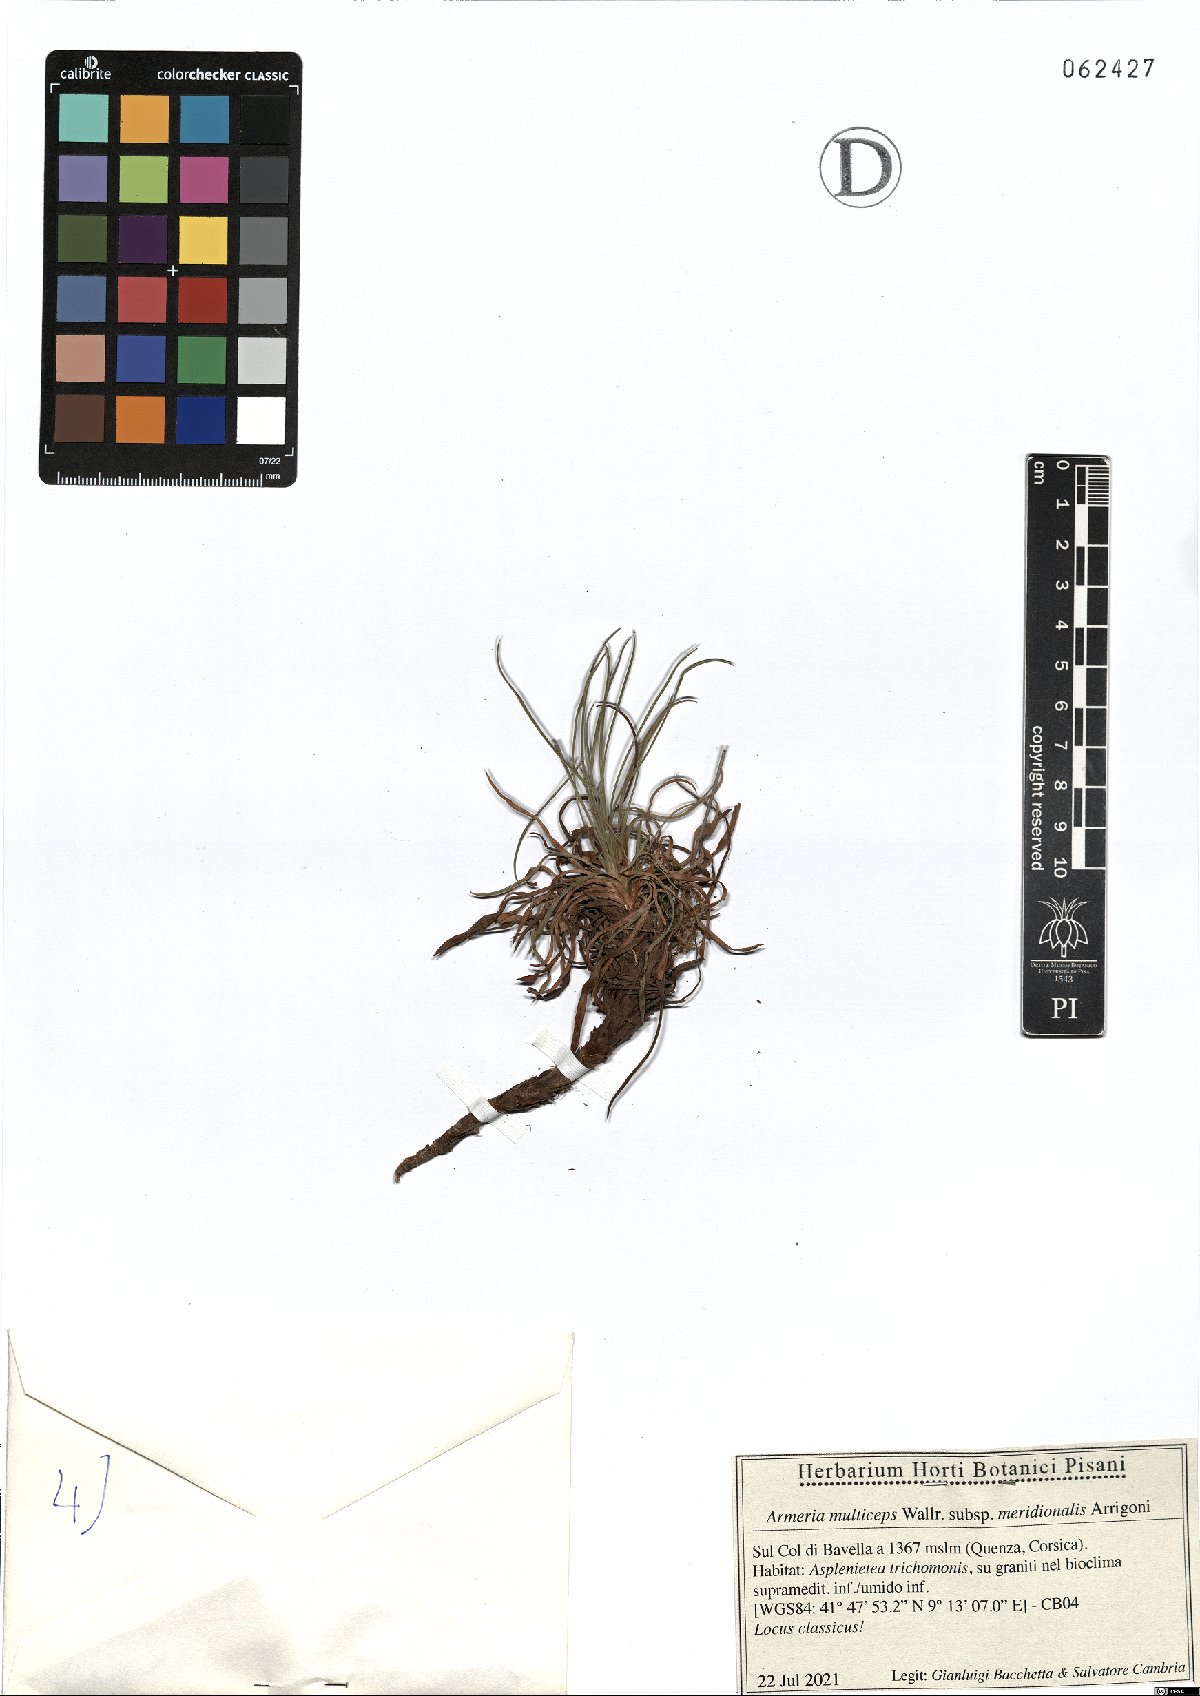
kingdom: Plantae
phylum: Tracheophyta
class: Magnoliopsida
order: Caryophyllales
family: Plumbaginaceae
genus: Armeria
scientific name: Armeria multiceps
